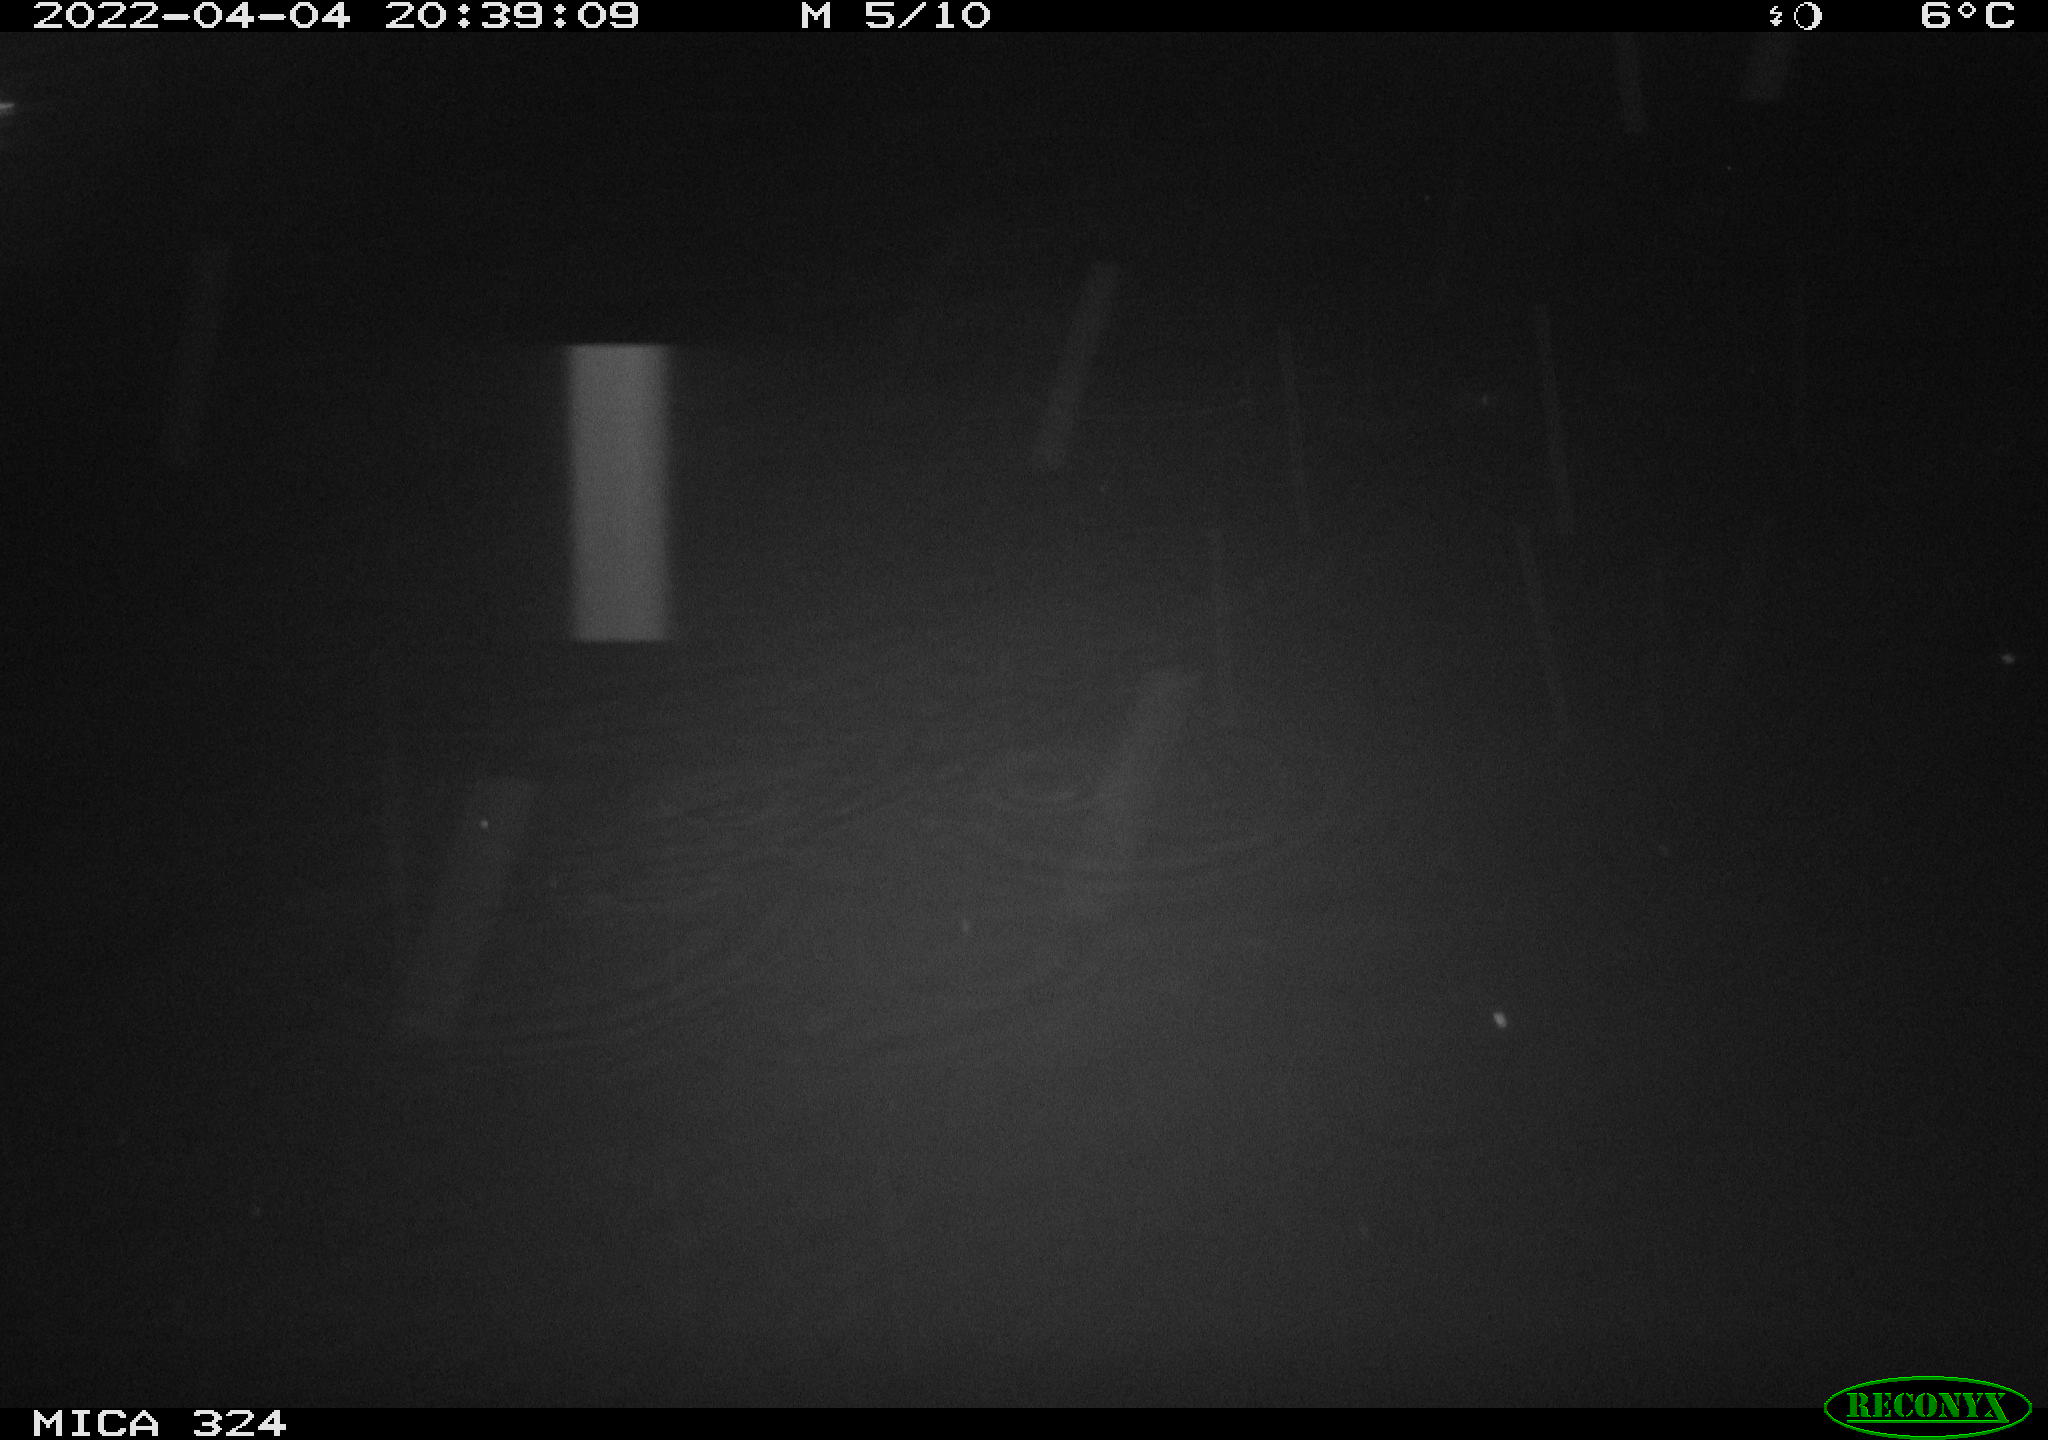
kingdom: Animalia
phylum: Chordata
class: Mammalia
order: Rodentia
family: Cricetidae
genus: Ondatra
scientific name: Ondatra zibethicus
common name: Muskrat
